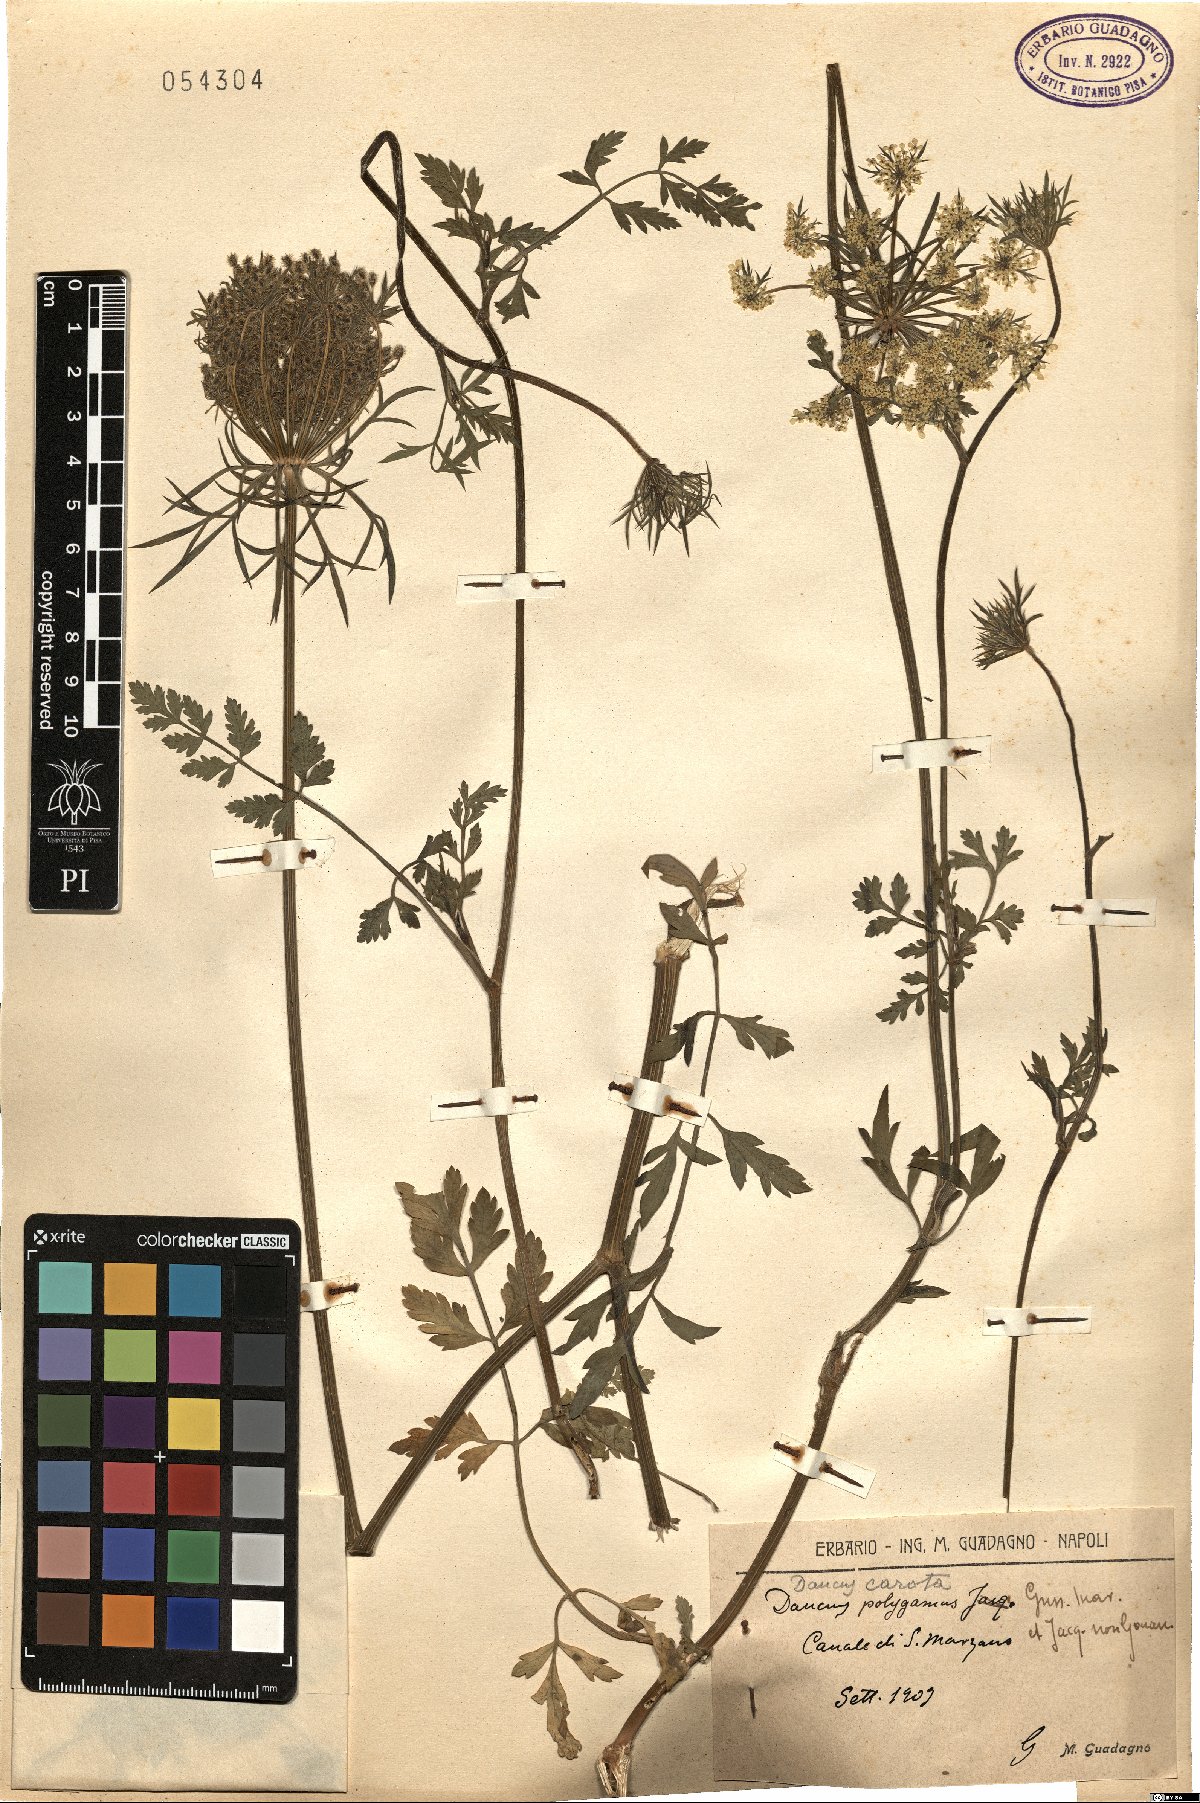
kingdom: Plantae
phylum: Tracheophyta
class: Magnoliopsida
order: Apiales
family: Apiaceae
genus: Daucus
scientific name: Daucus carota
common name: Wild carrot
